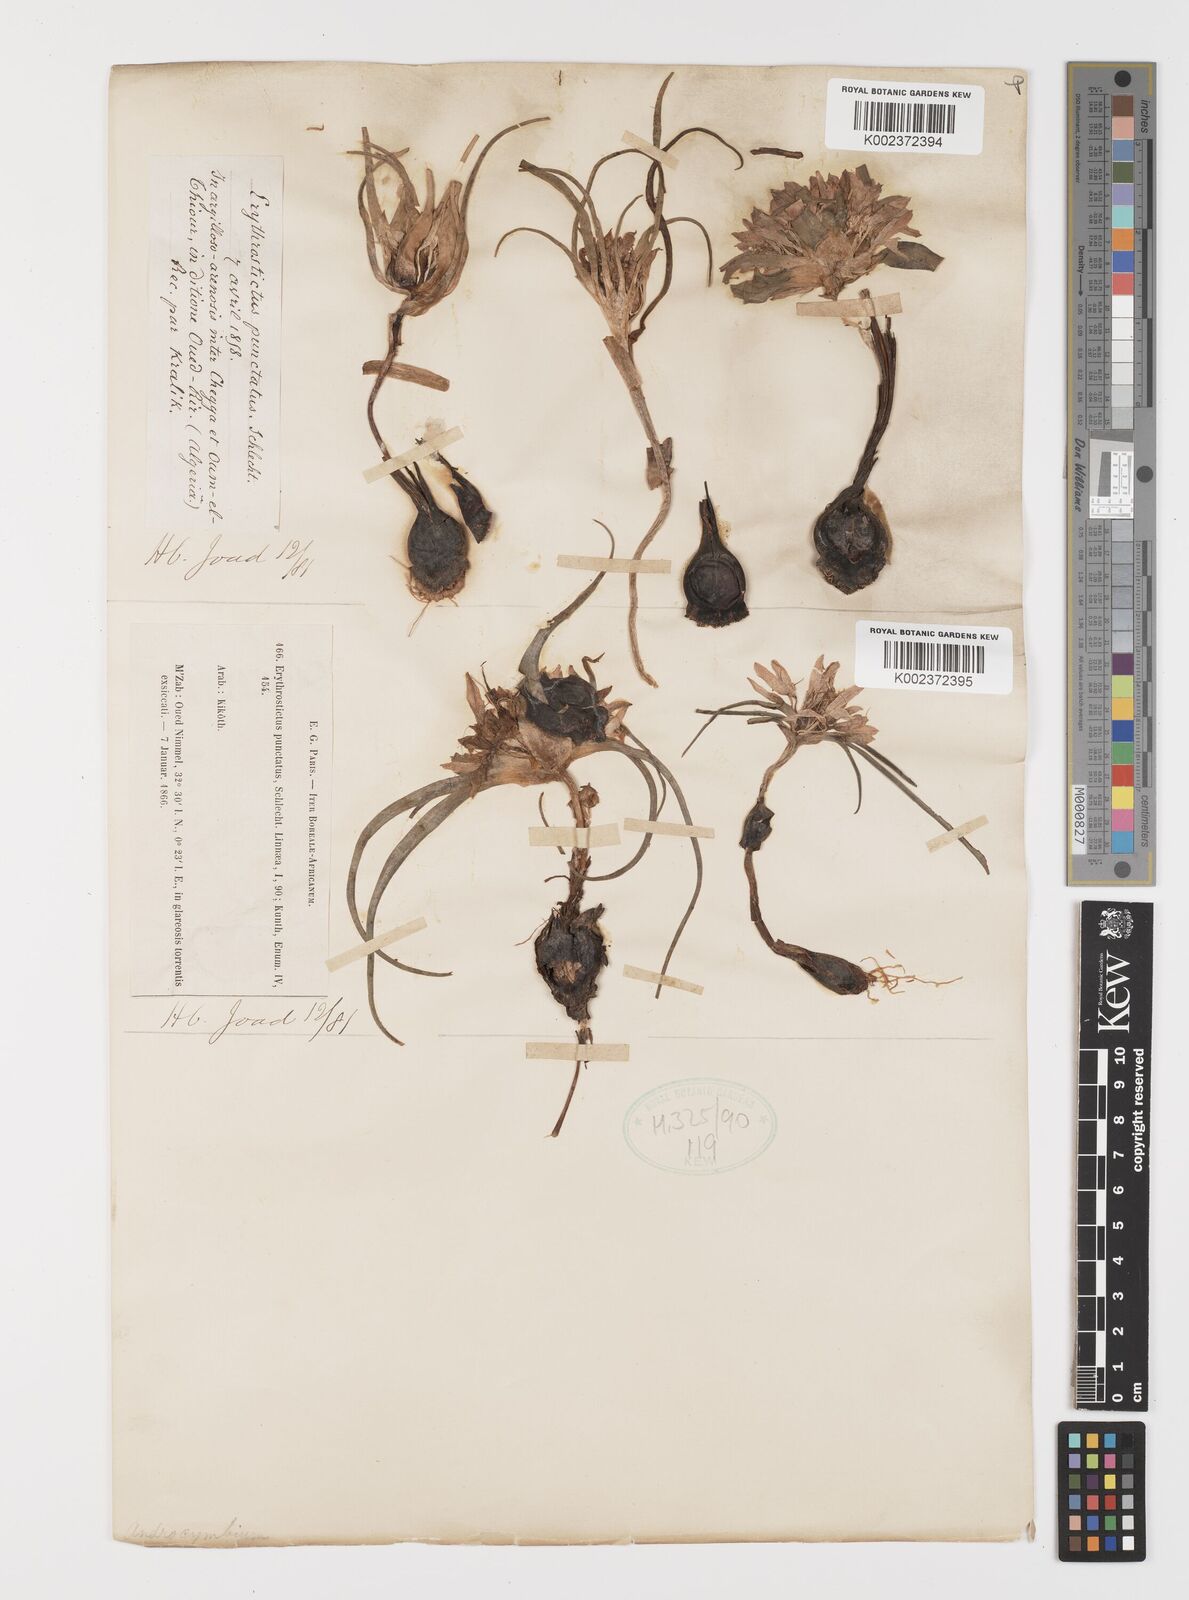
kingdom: Plantae
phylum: Tracheophyta
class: Liliopsida
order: Liliales
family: Colchicaceae
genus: Colchicum
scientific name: Colchicum gramineum
